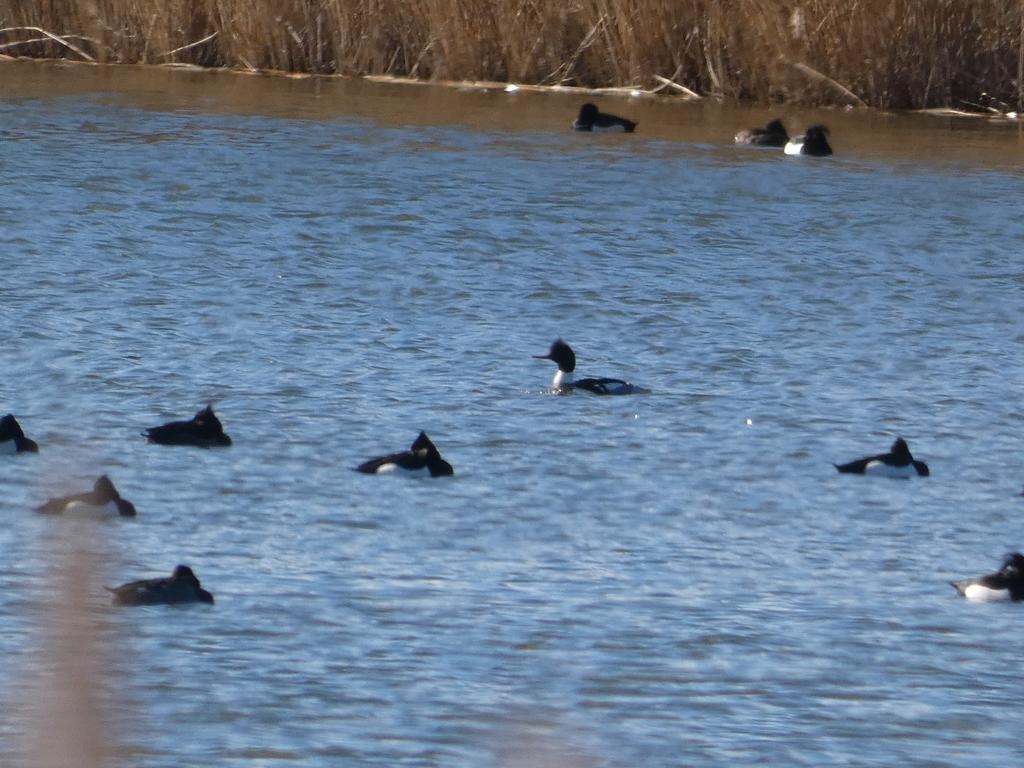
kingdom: Animalia
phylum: Chordata
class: Aves
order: Anseriformes
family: Anatidae
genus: Mergus
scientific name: Mergus serrator
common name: Toppet skallesluger
